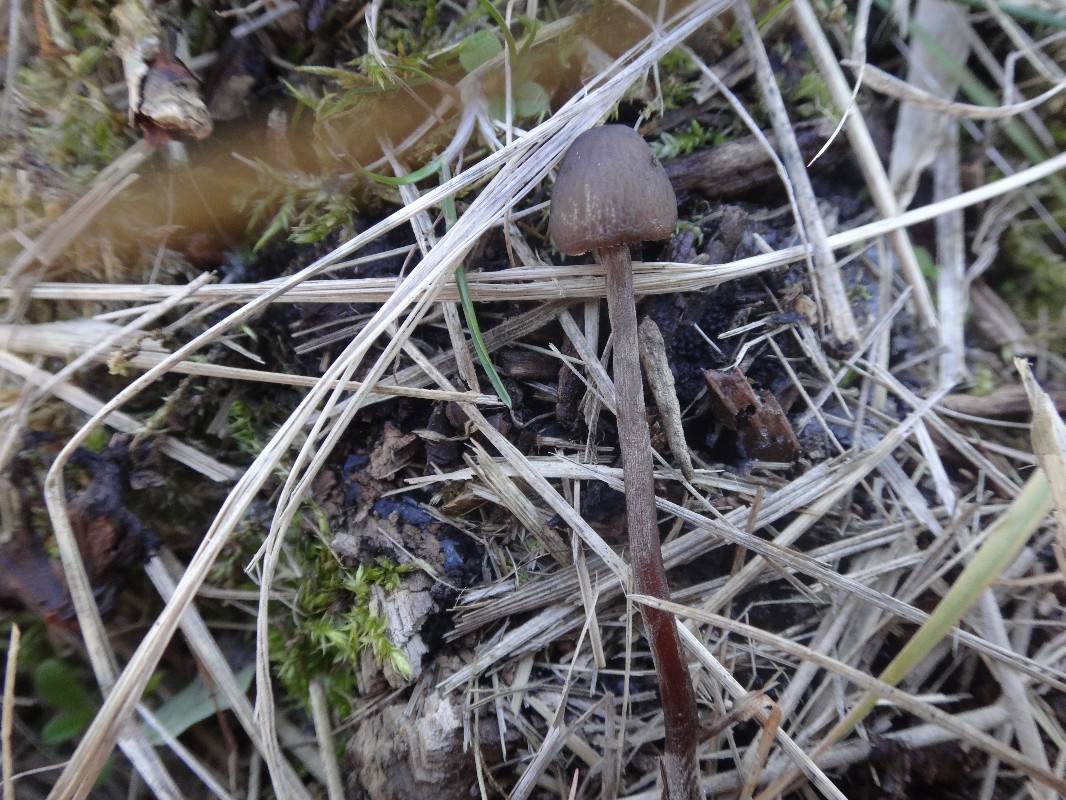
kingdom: Fungi
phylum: Basidiomycota
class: Agaricomycetes
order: Agaricales
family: Bolbitiaceae
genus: Panaeolus
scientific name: Panaeolus acuminatus
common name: høj glanshat
